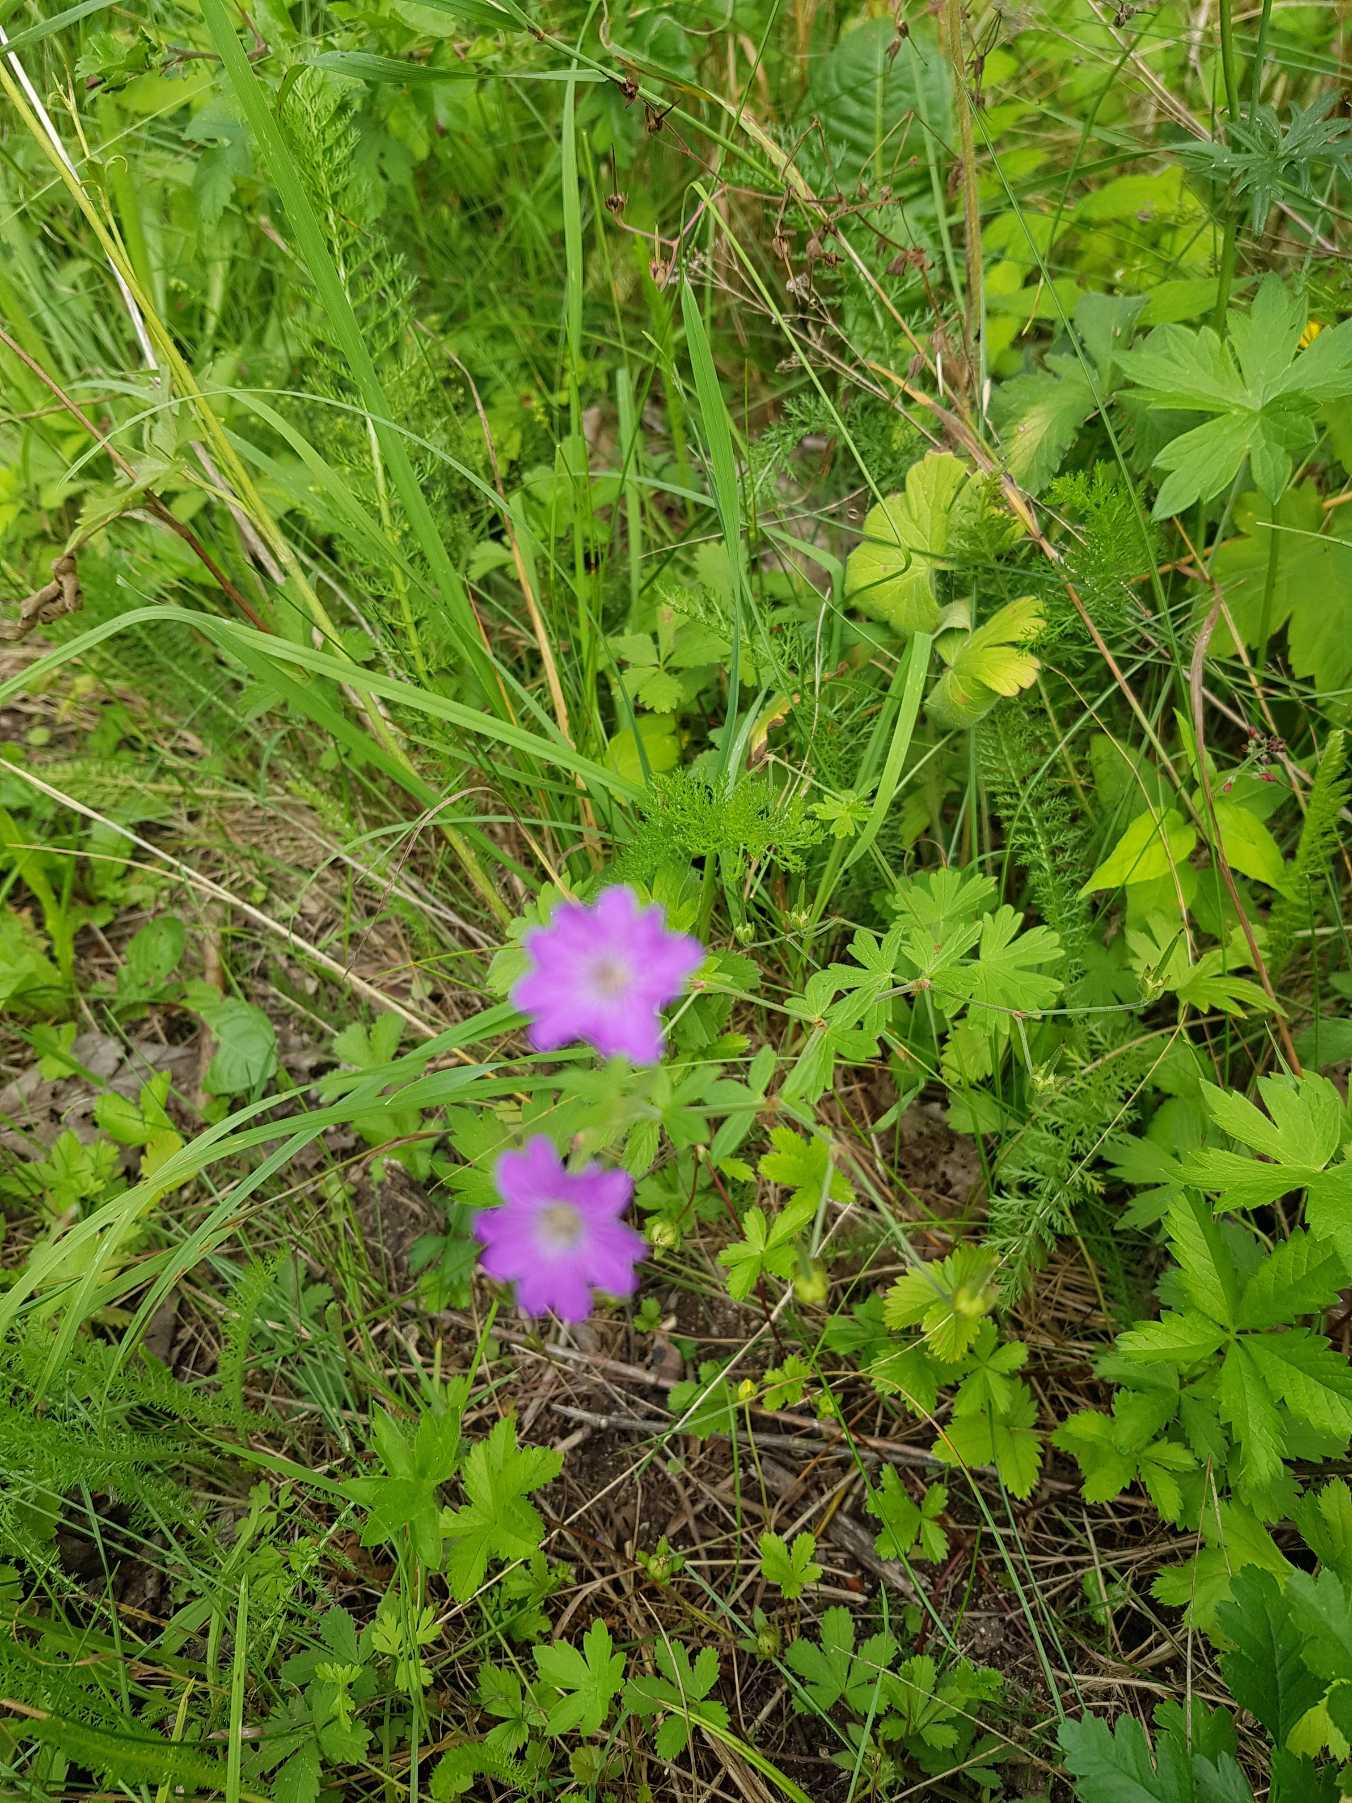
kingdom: Plantae
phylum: Tracheophyta
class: Magnoliopsida
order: Geraniales
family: Geraniaceae
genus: Geranium
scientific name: Geranium pyrenaicum
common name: Pyrenæisk storkenæb
